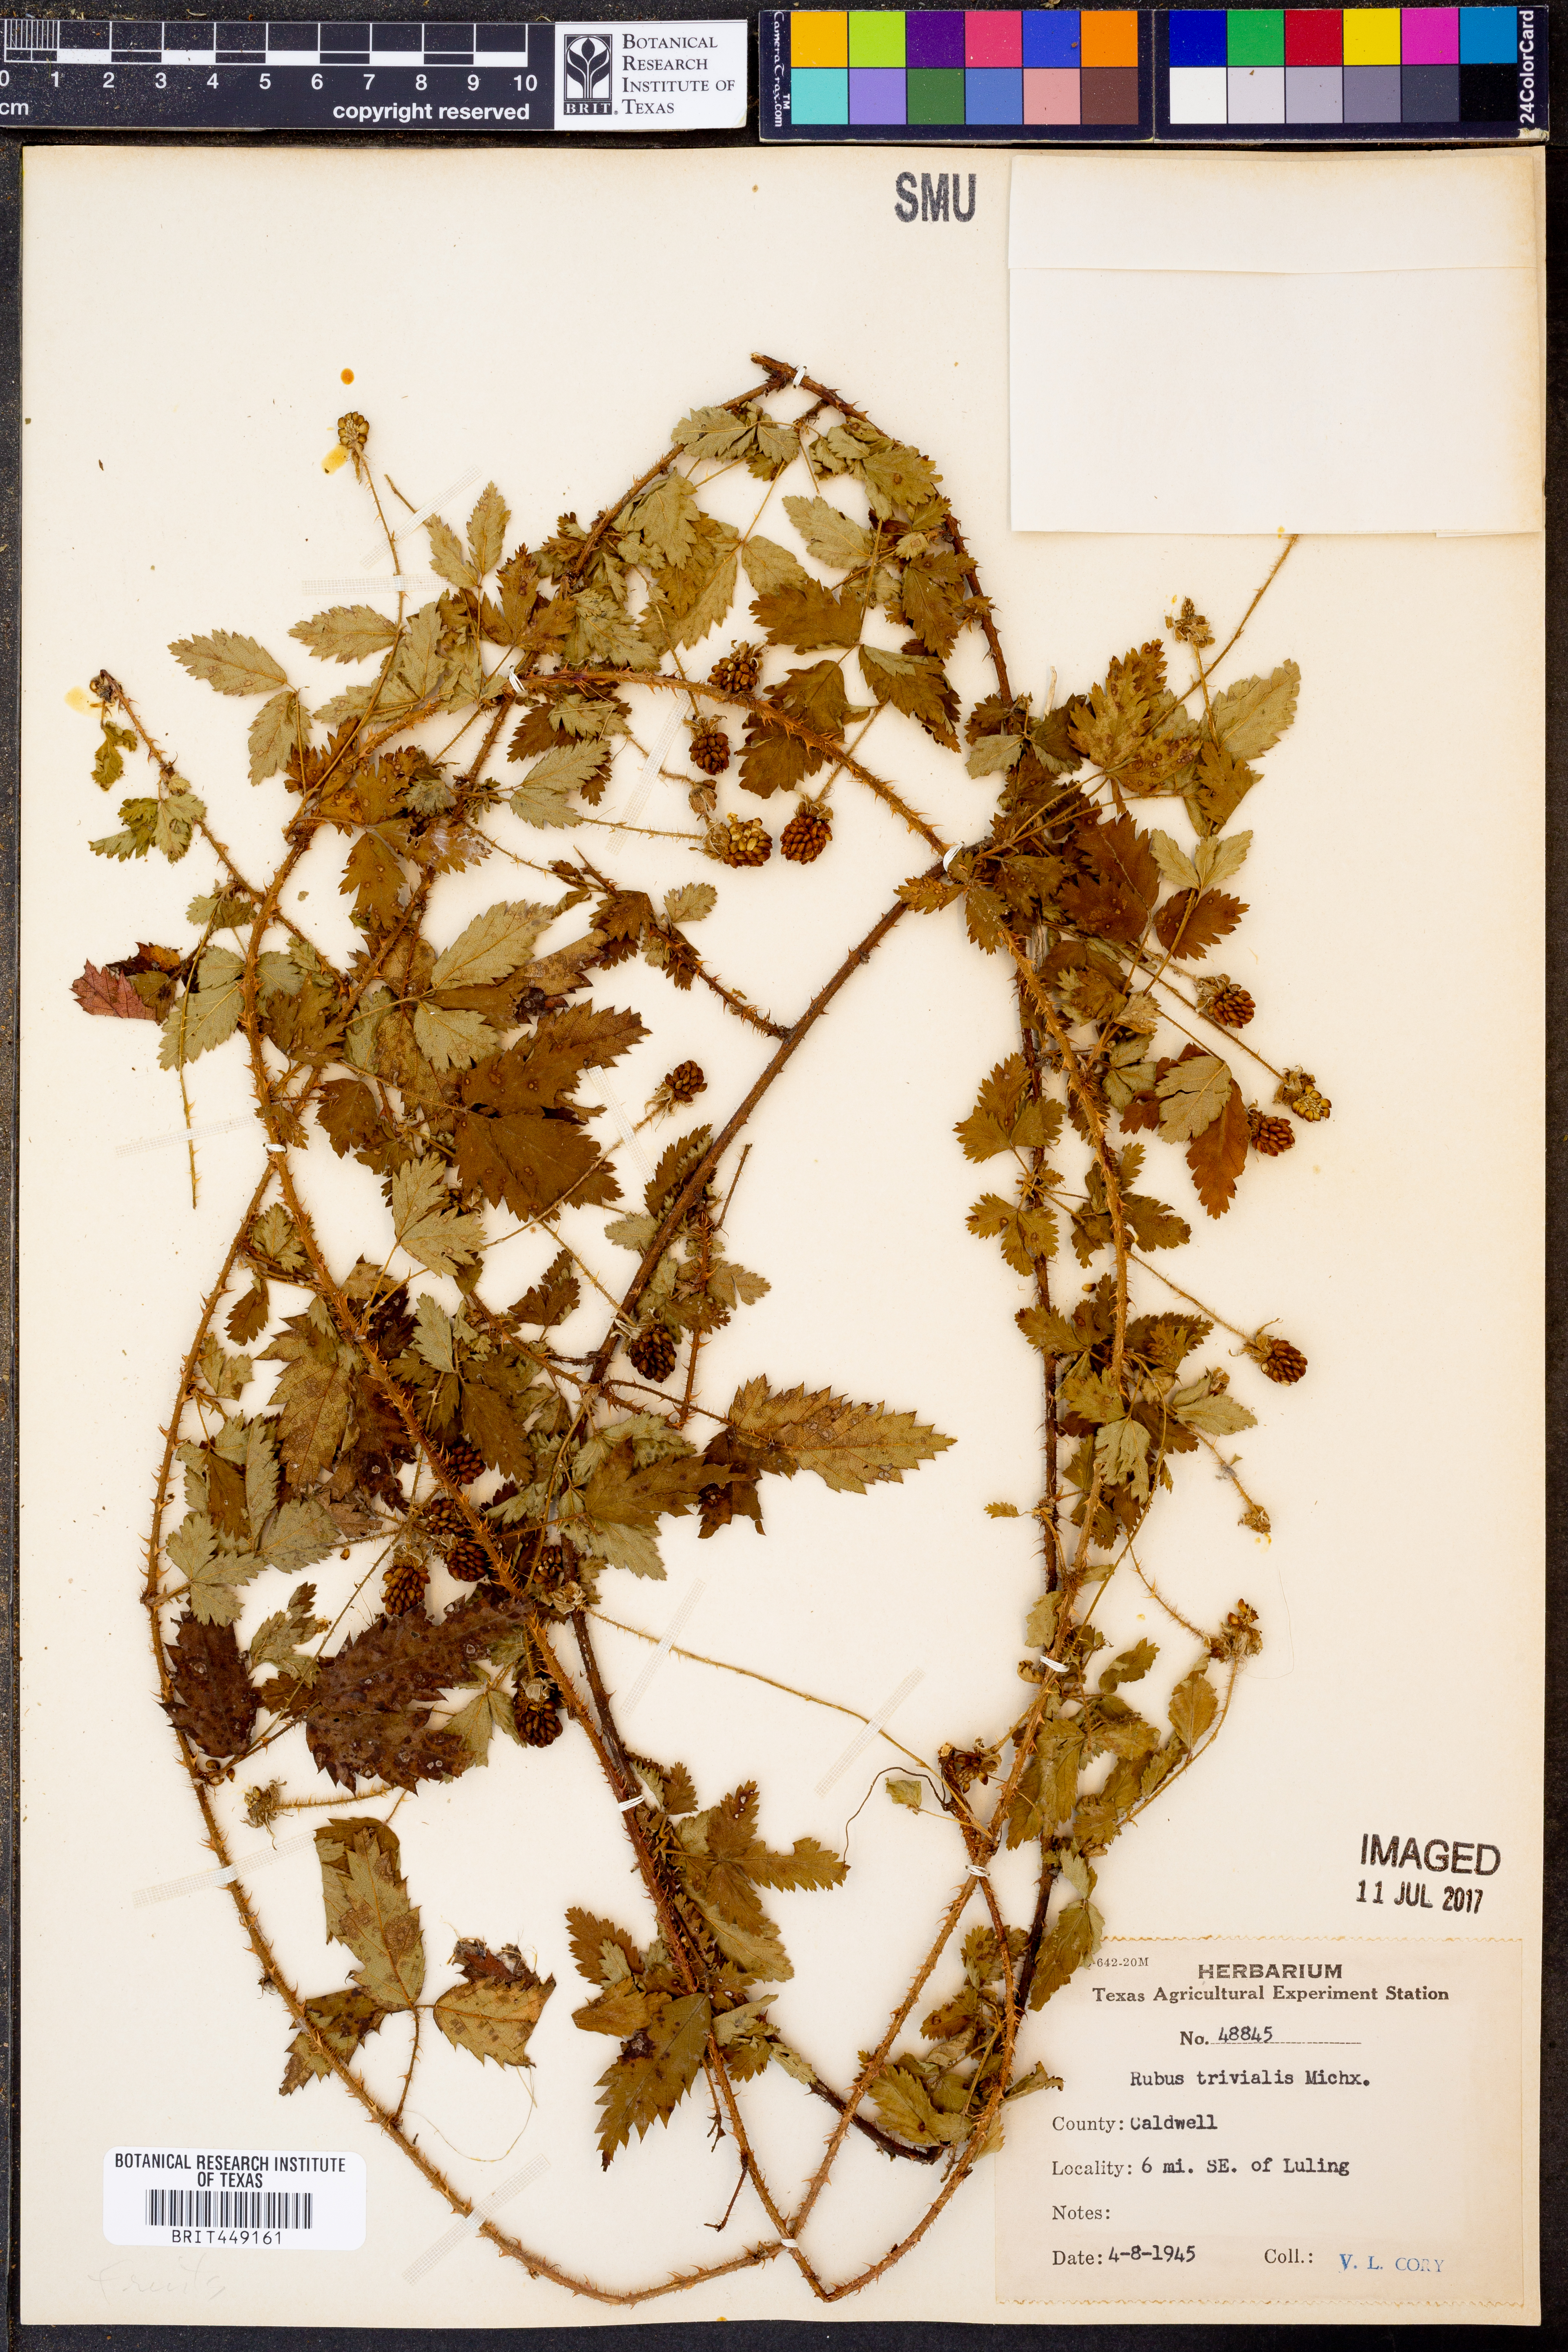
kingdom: Plantae
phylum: Tracheophyta
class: Magnoliopsida
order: Rosales
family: Rosaceae
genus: Rubus
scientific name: Rubus trivialis
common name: Southern dewberry
